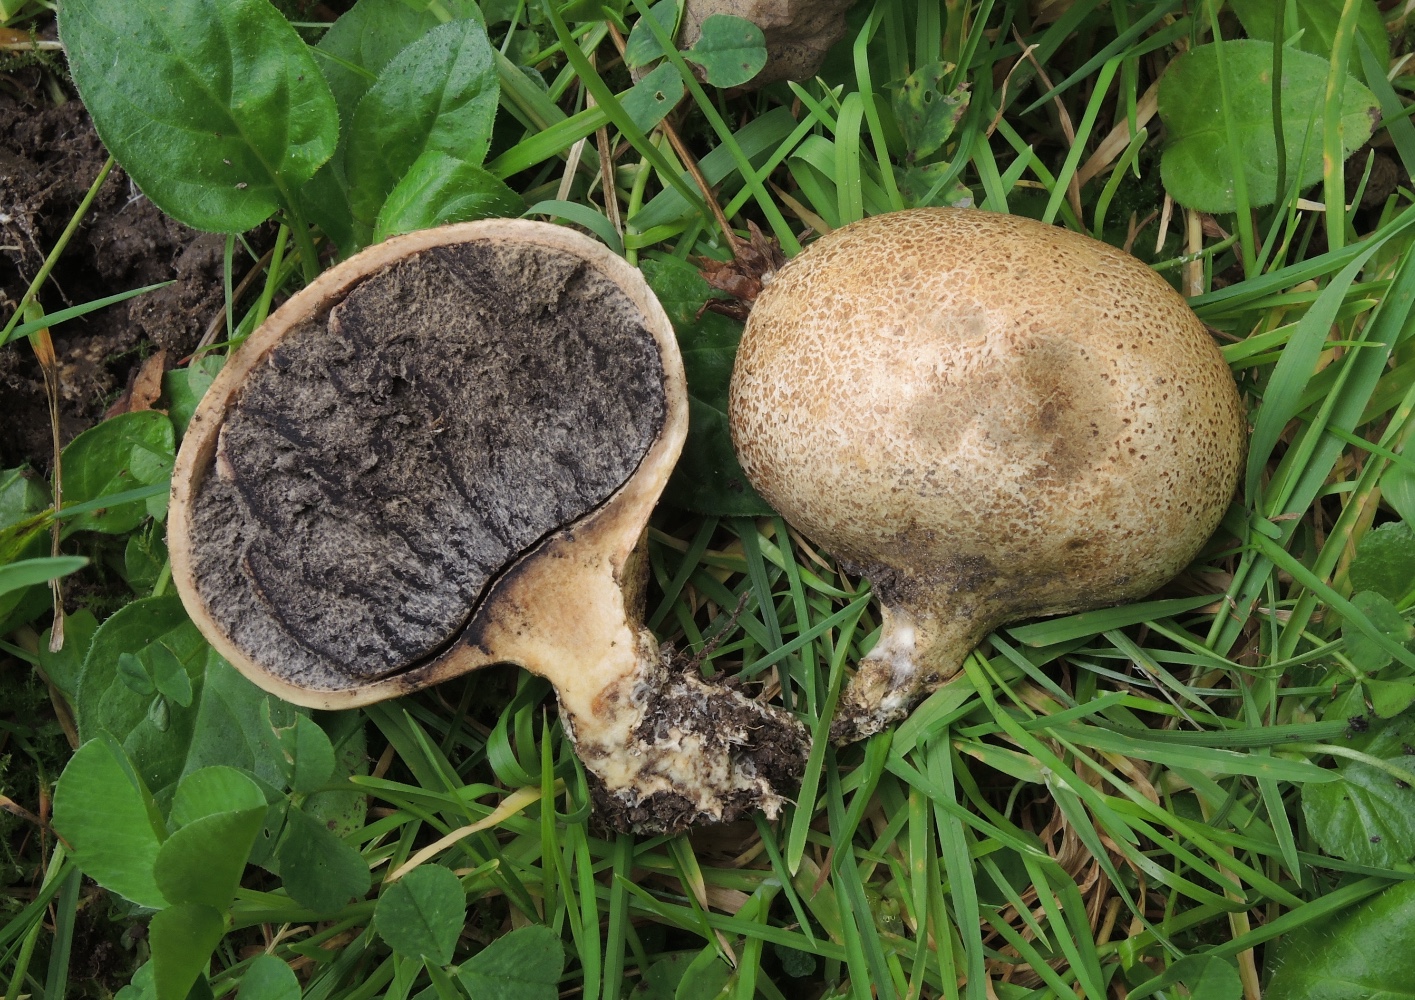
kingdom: Fungi
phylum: Basidiomycota
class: Agaricomycetes
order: Boletales
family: Sclerodermataceae
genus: Scleroderma
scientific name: Scleroderma cepa
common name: rødbrun bruskbold
